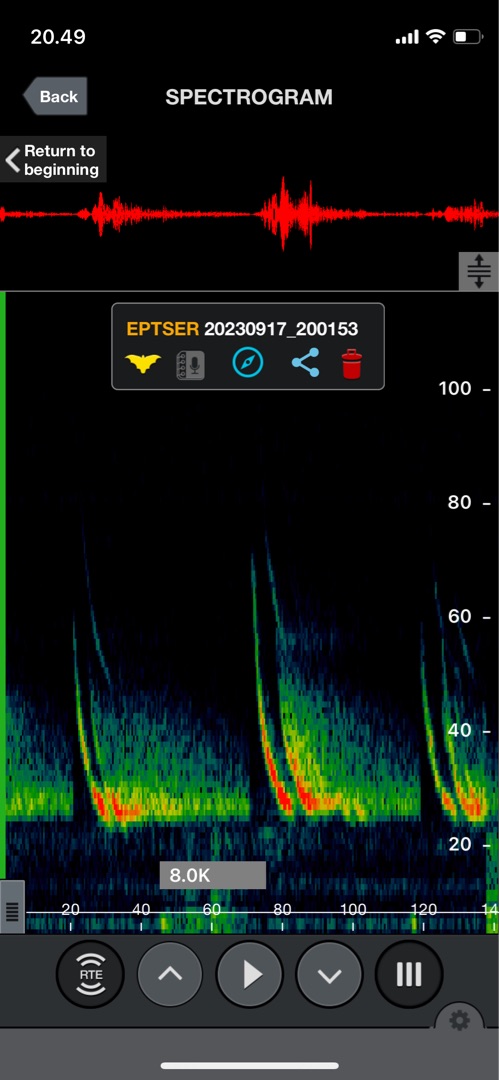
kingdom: Animalia
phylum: Chordata
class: Mammalia
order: Chiroptera
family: Vespertilionidae
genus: Eptesicus
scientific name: Eptesicus serotinus
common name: Sydflagermus
